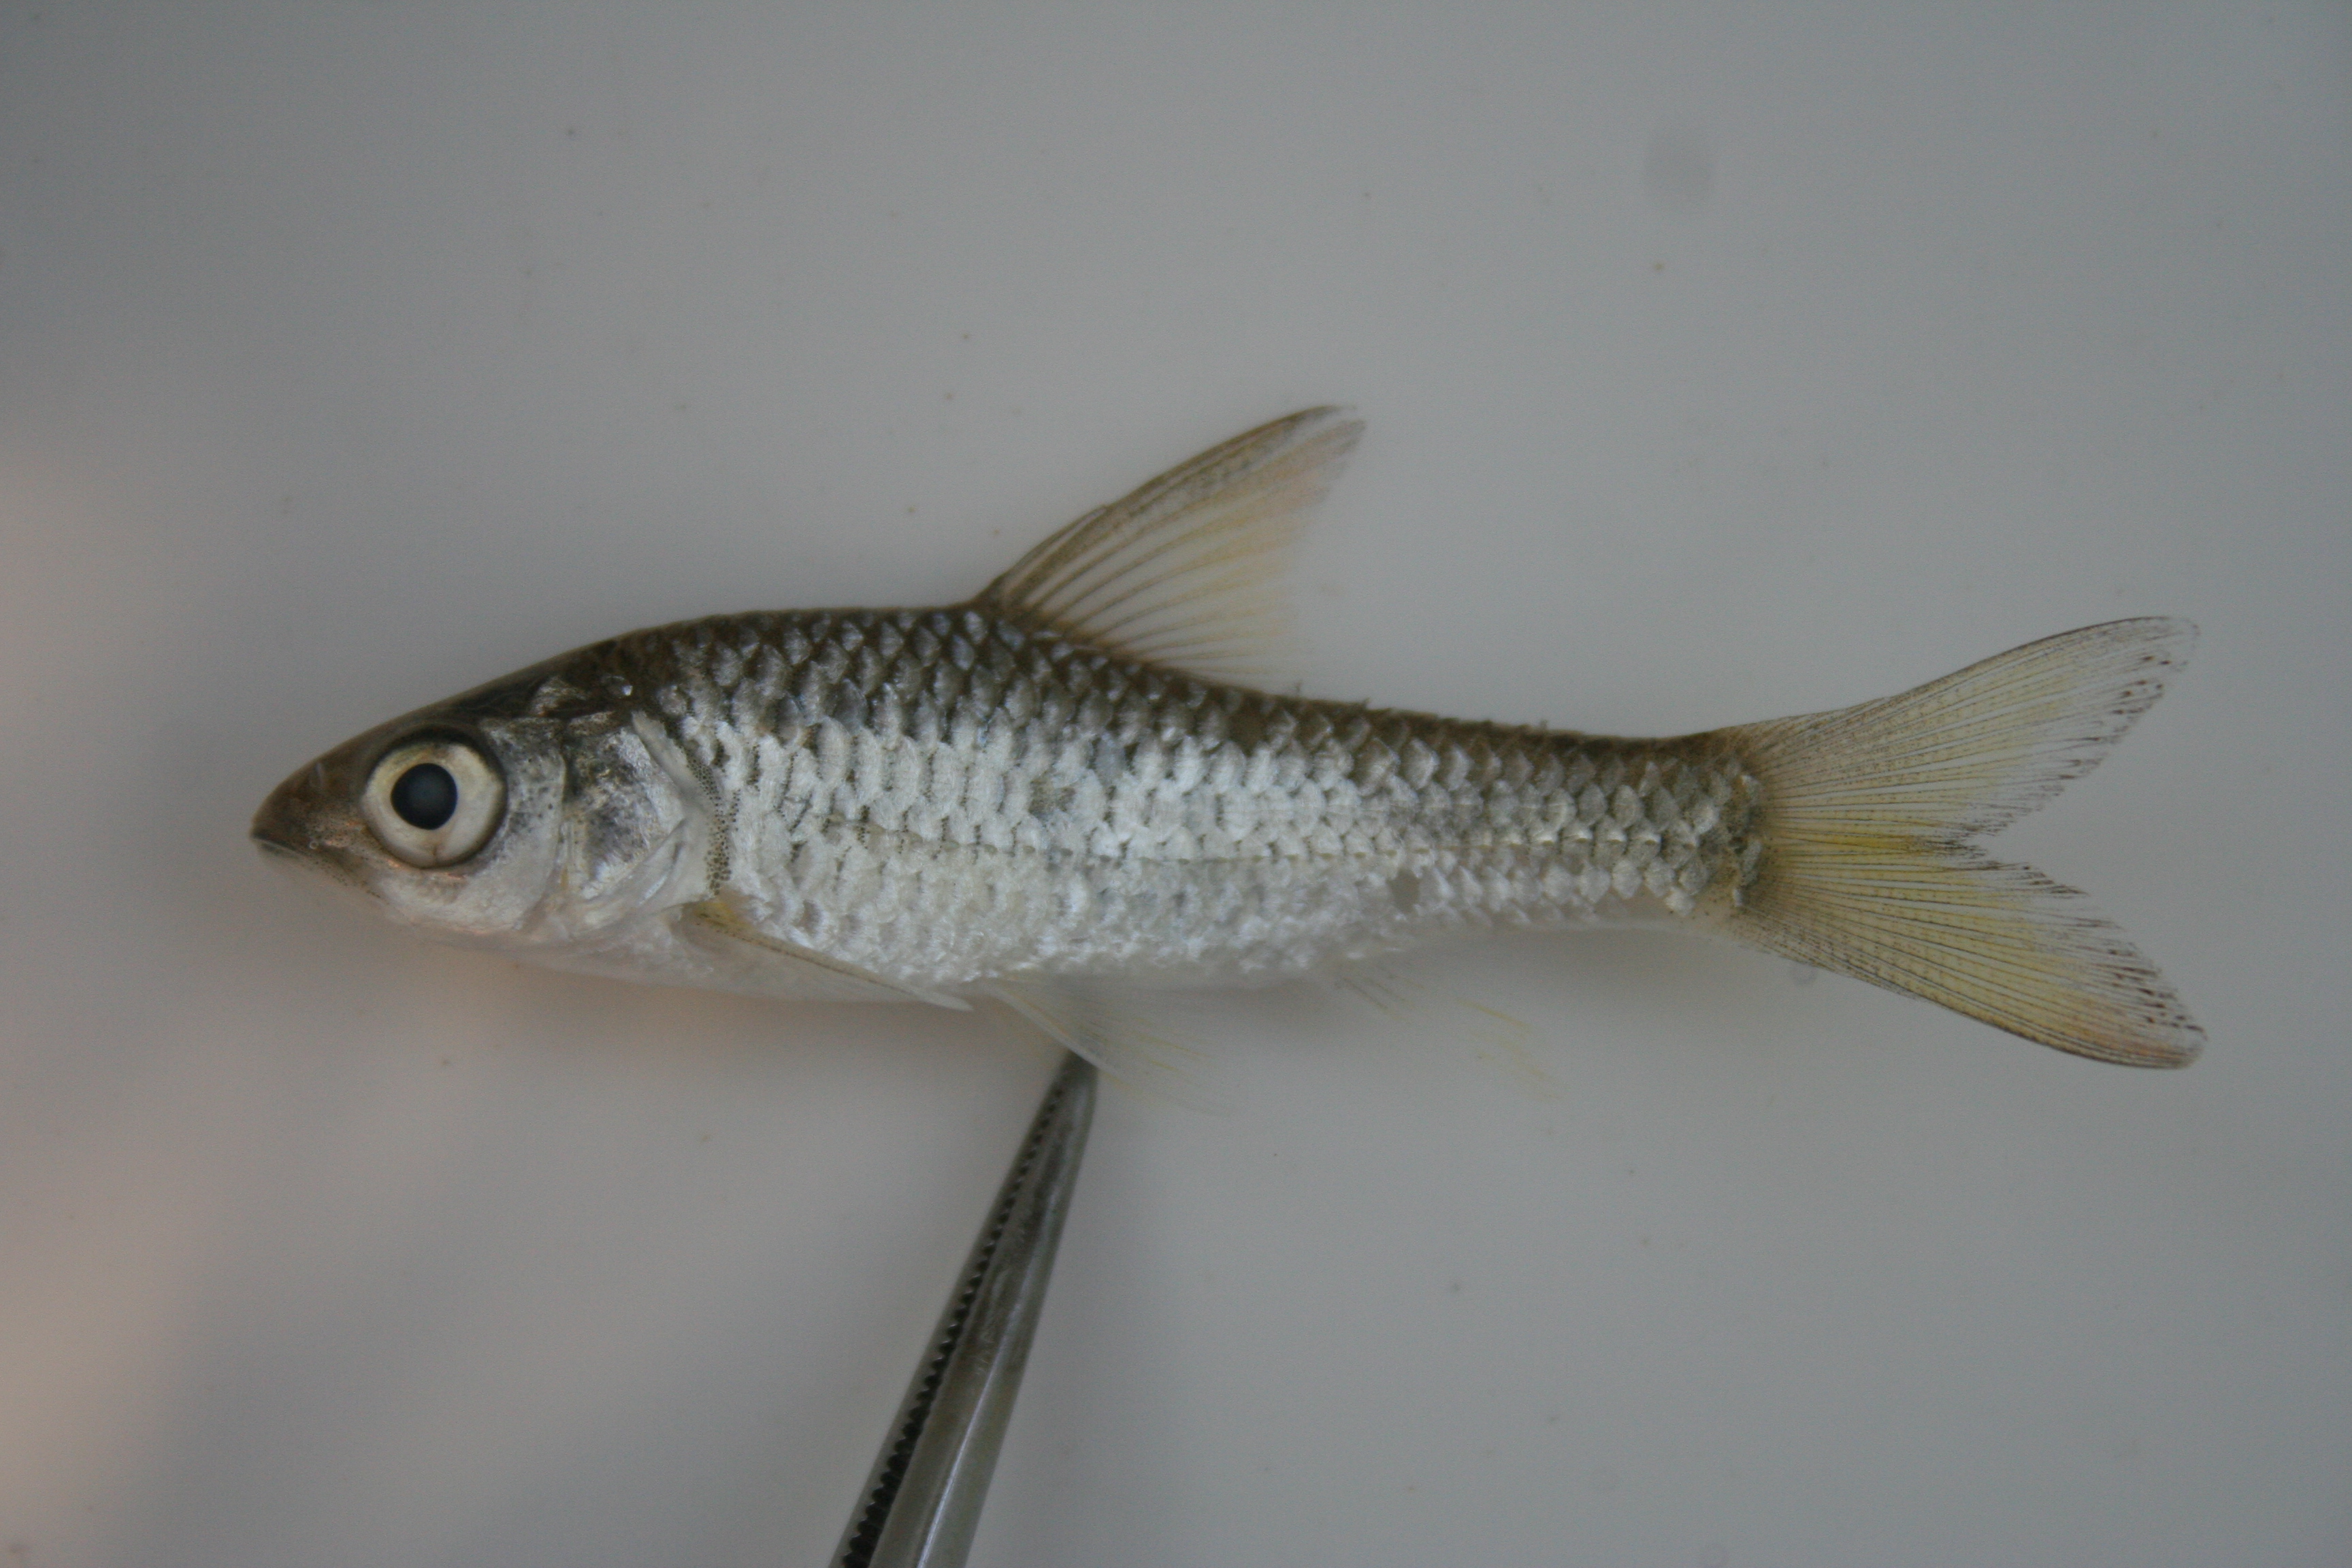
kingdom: Animalia
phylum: Chordata
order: Cypriniformes
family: Cyprinidae
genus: Enteromius
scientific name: Enteromius paludinosus
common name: Straightfin barb
